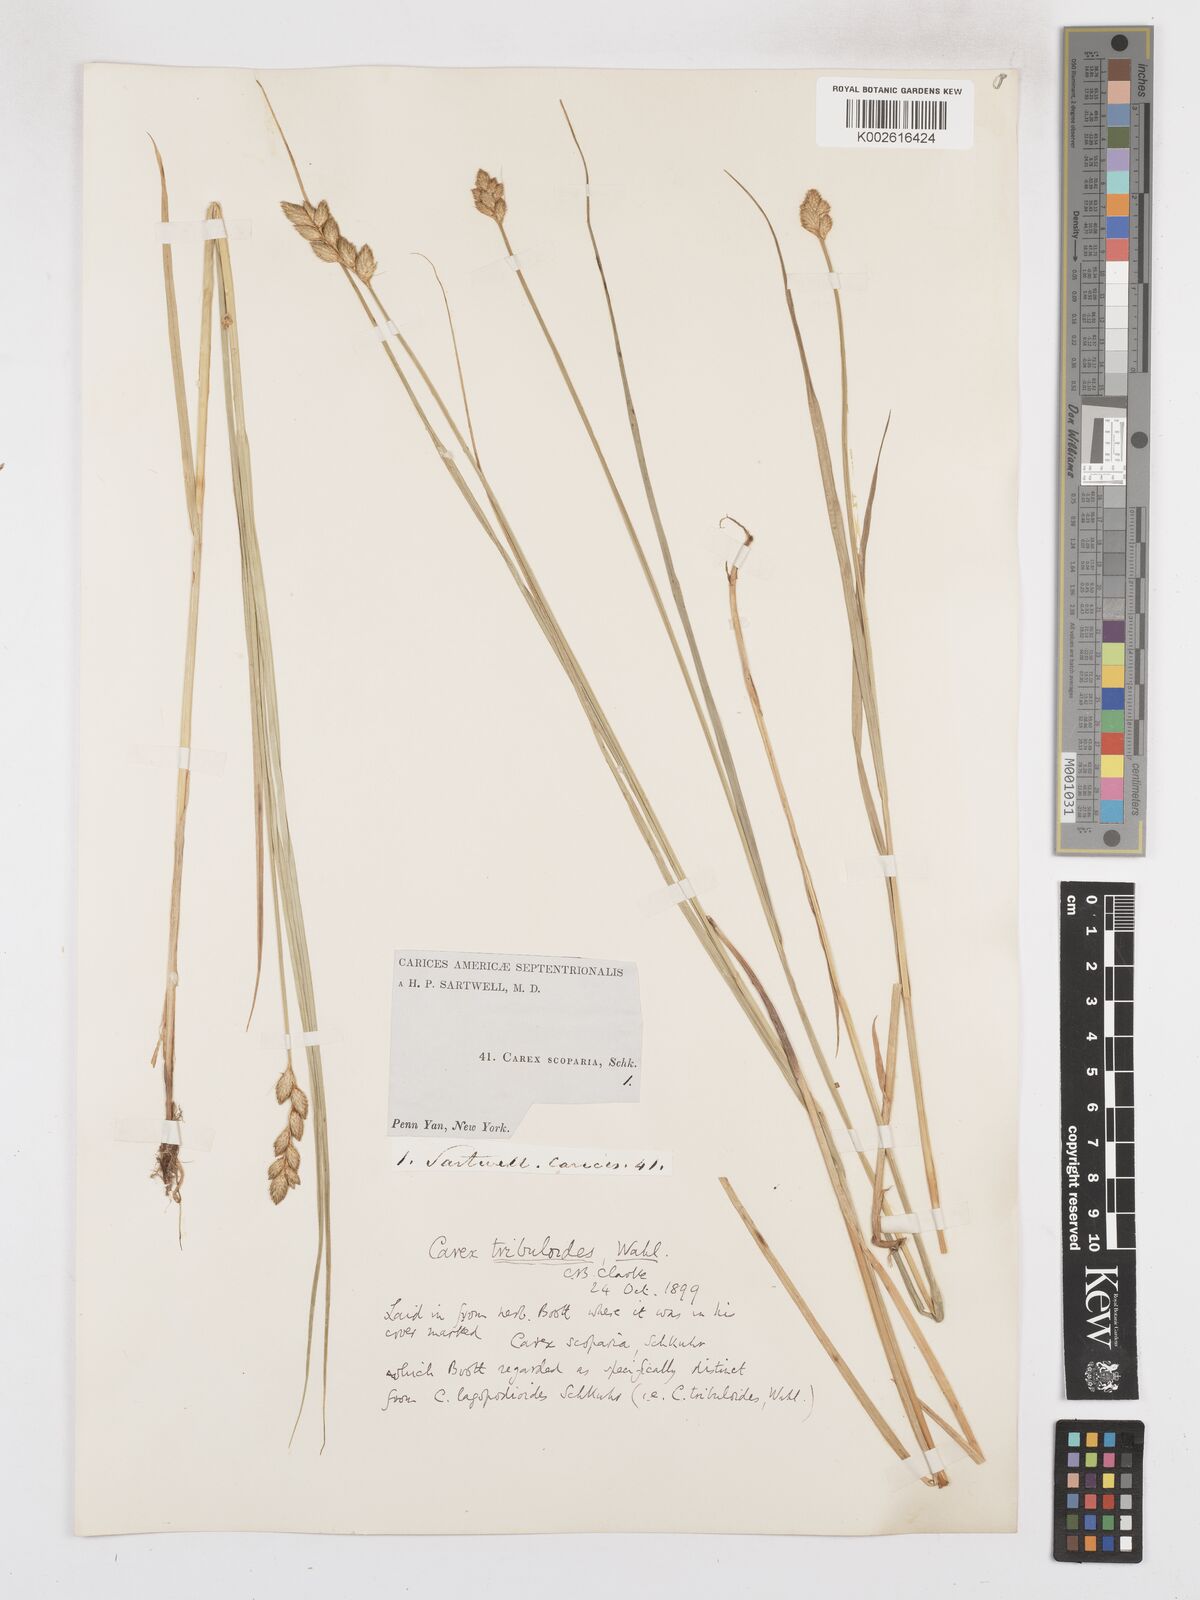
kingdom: Plantae
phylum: Tracheophyta
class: Liliopsida
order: Poales
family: Cyperaceae
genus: Carex
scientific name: Carex tribuloides
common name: Blunt broom sedge
